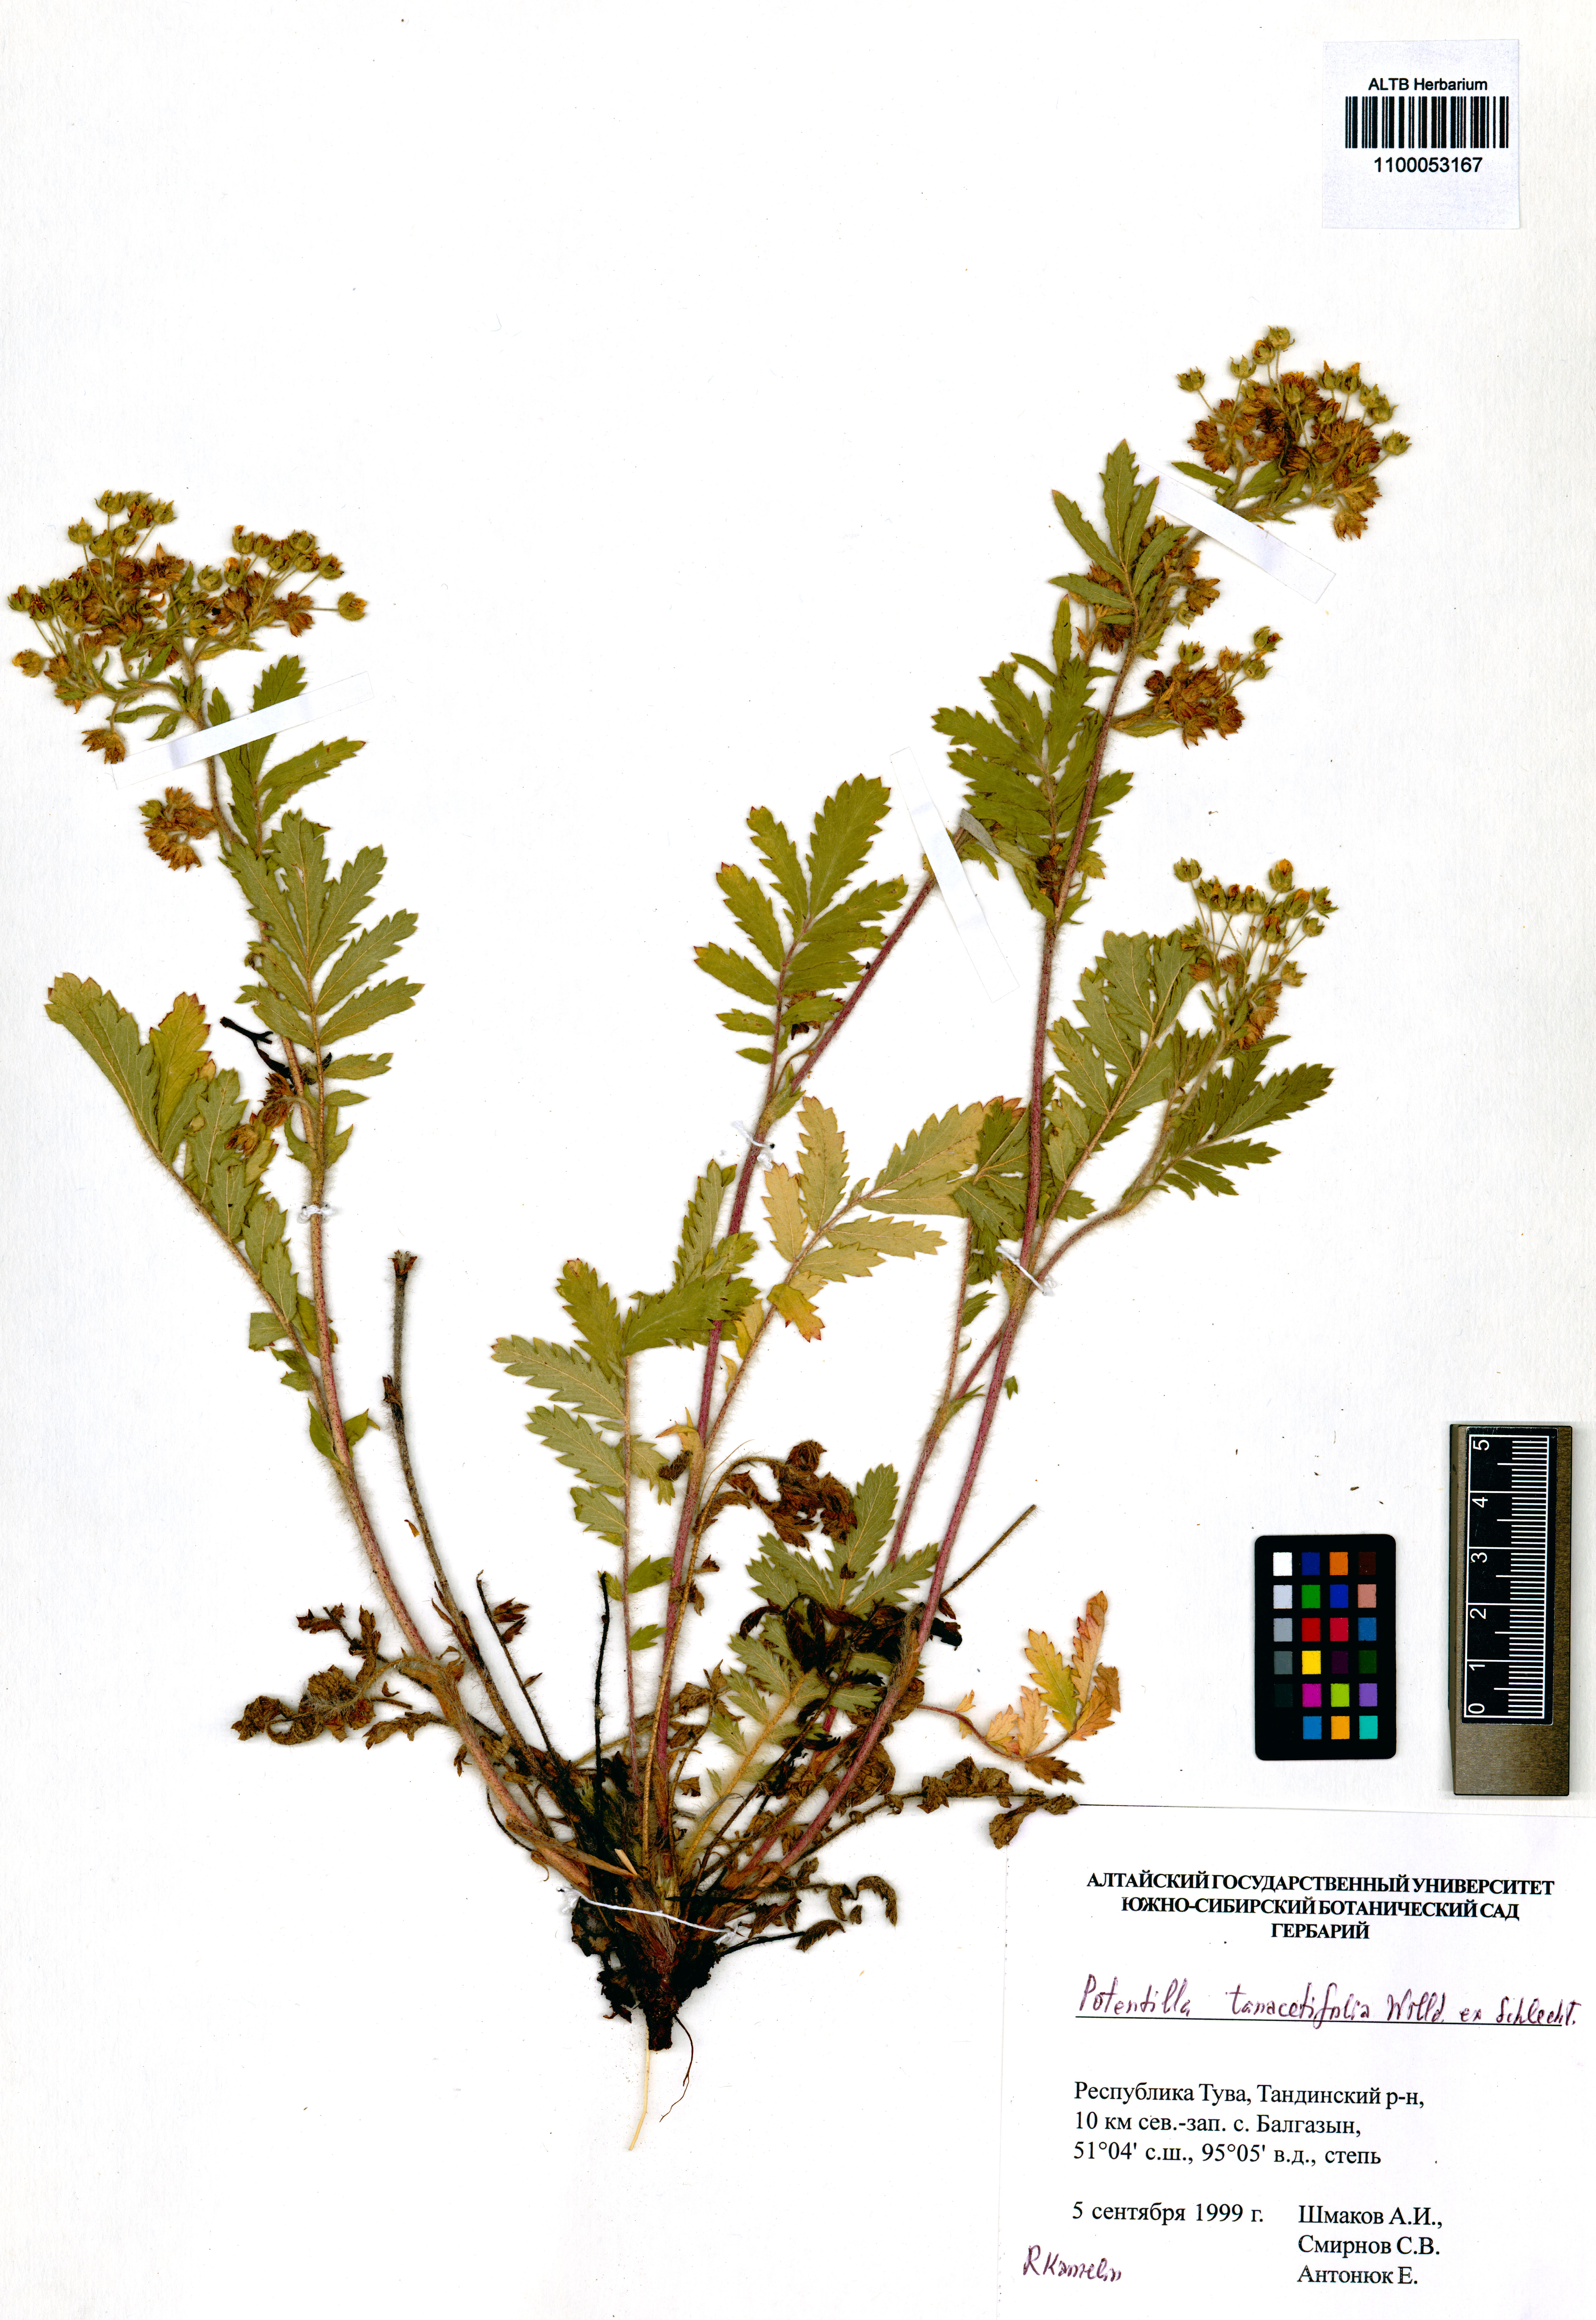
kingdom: Plantae
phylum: Tracheophyta
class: Magnoliopsida
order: Rosales
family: Rosaceae
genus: Potentilla
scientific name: Potentilla tanacetifolia
